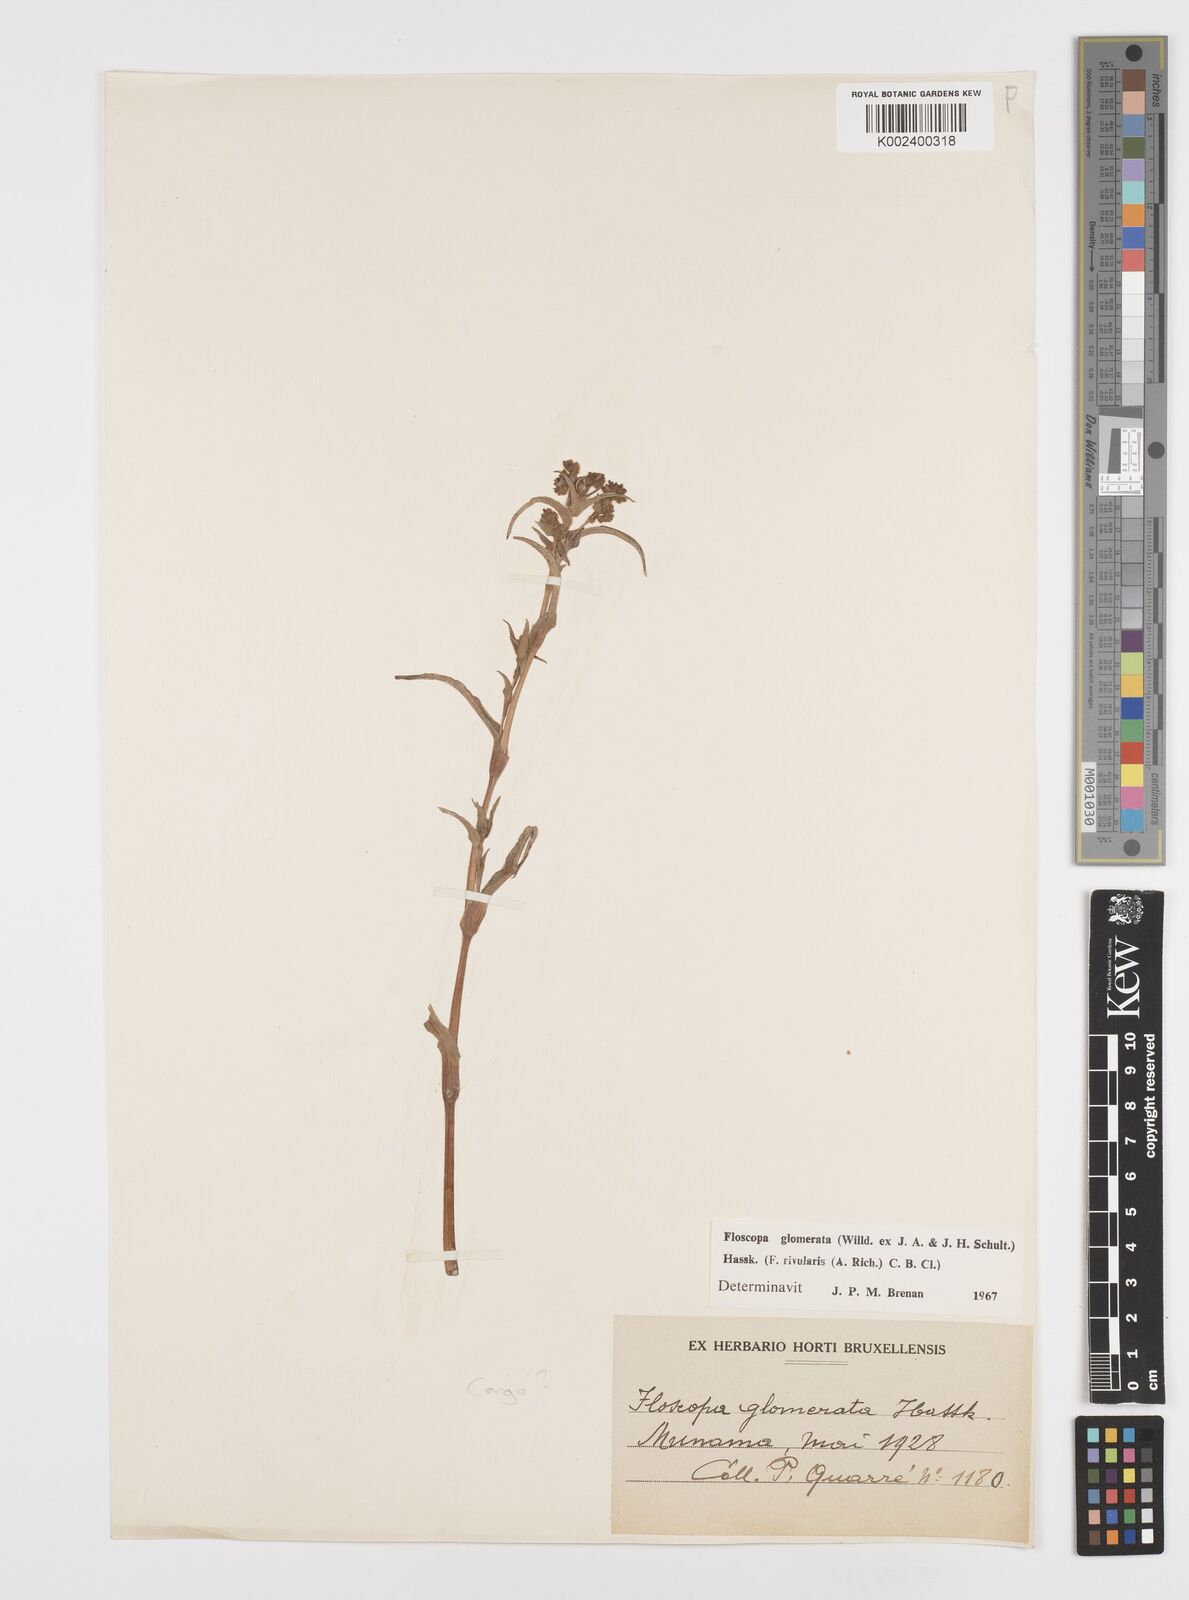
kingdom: Plantae
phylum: Tracheophyta
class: Liliopsida
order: Commelinales
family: Commelinaceae
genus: Floscopa
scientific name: Floscopa glomerata
